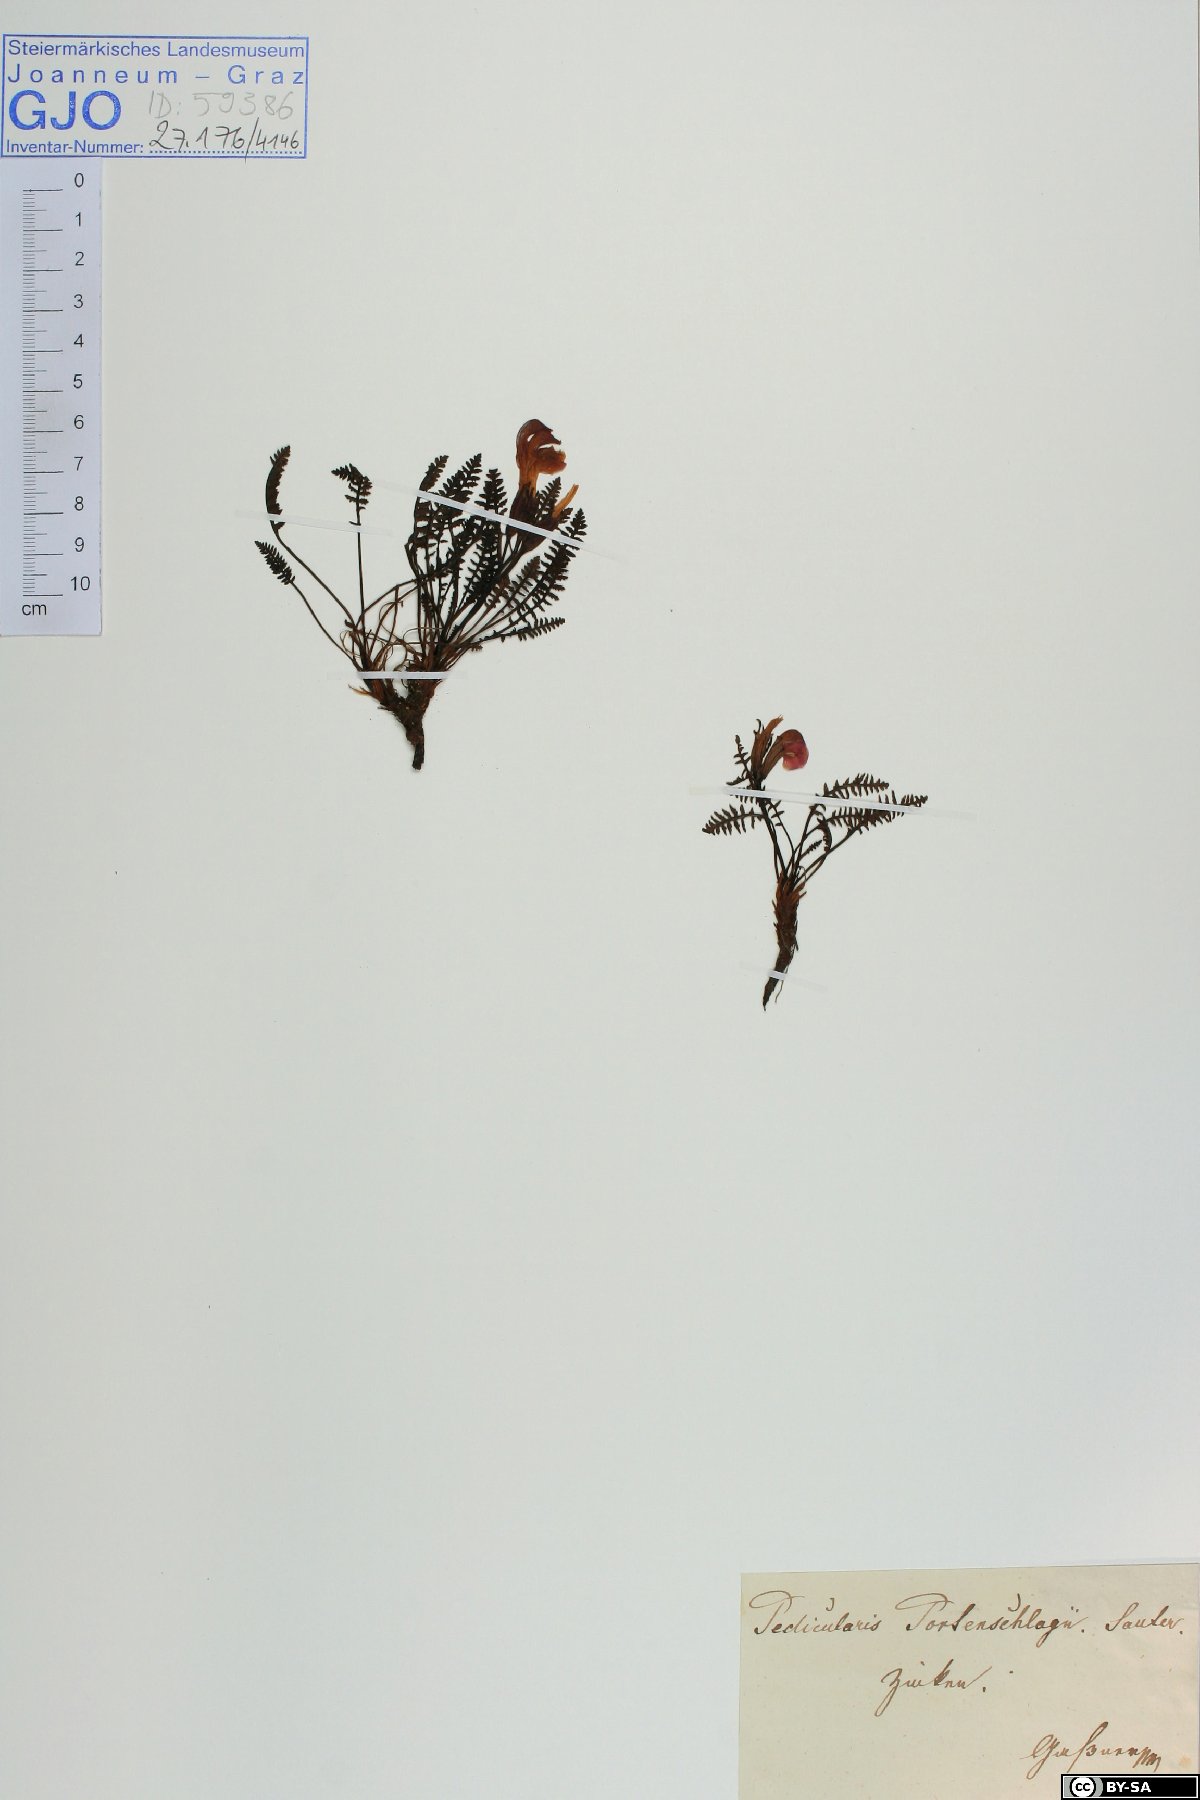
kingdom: Plantae
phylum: Tracheophyta
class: Magnoliopsida
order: Lamiales
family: Orobanchaceae
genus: Pedicularis
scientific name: Pedicularis portenschlagii
